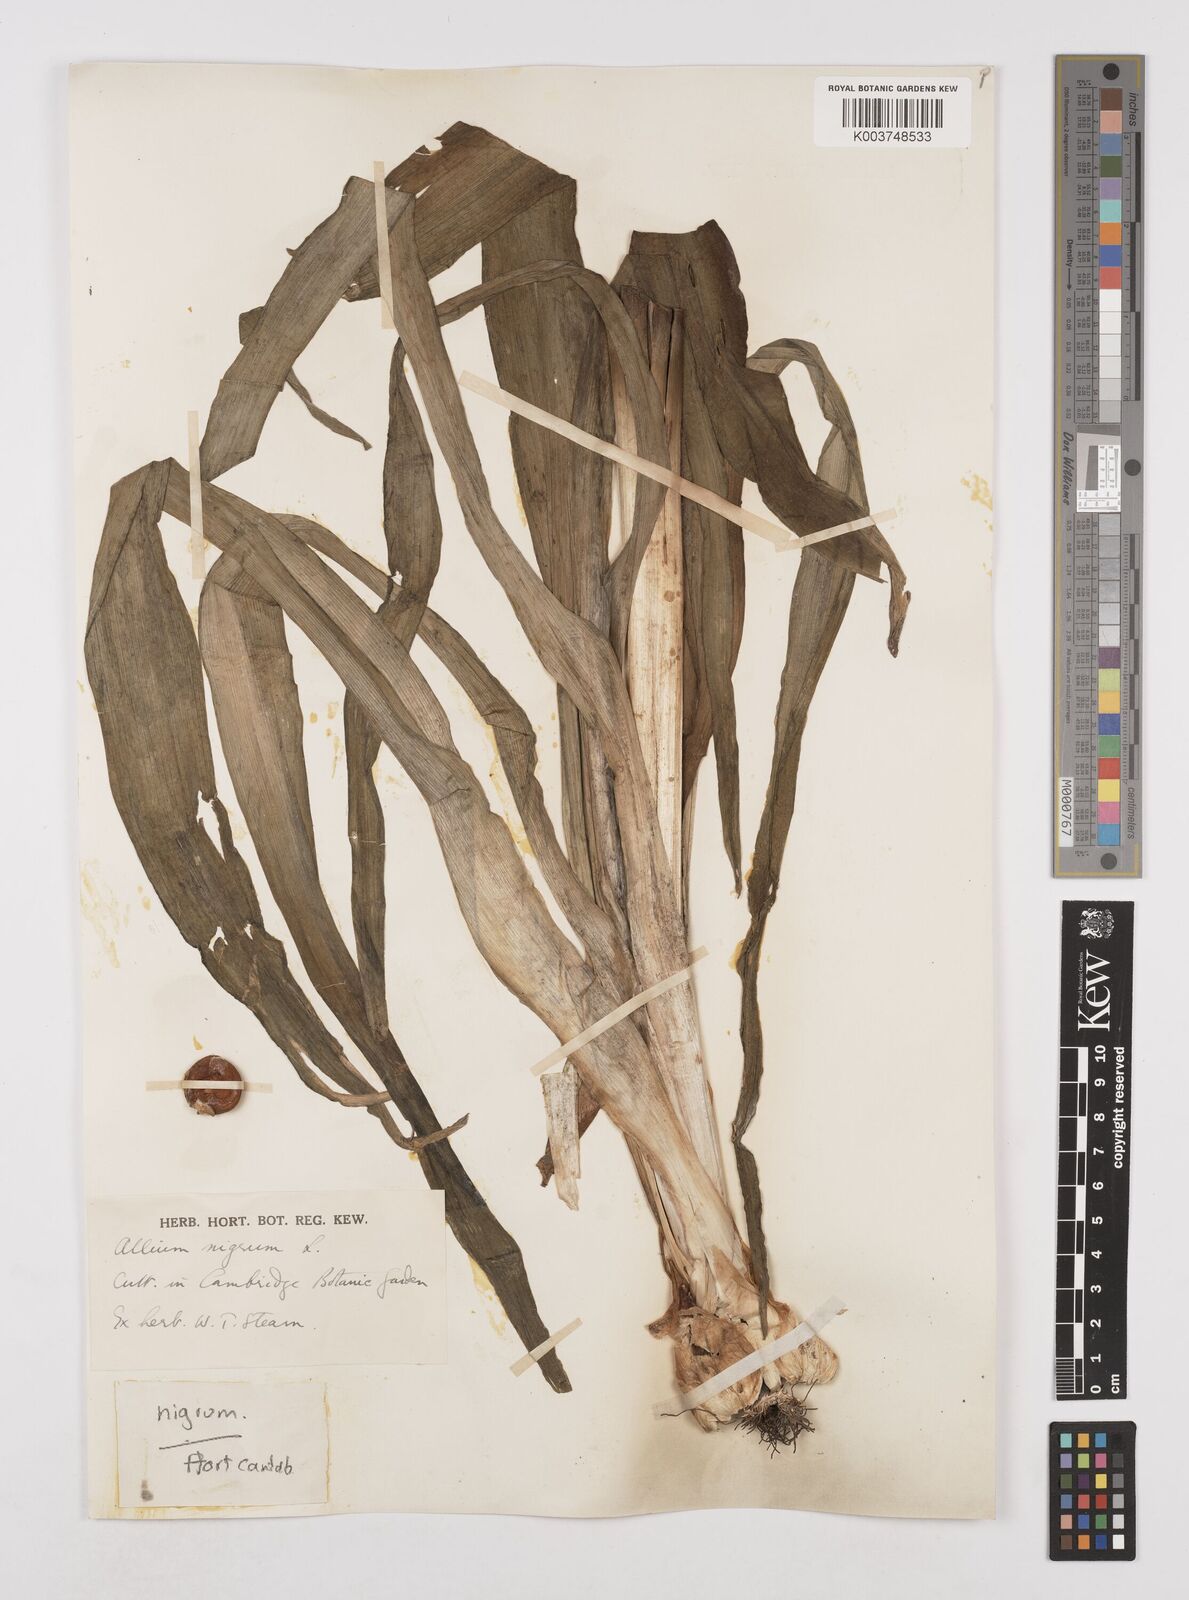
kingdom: Plantae
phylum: Tracheophyta
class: Liliopsida
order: Asparagales
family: Amaryllidaceae
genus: Allium
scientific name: Allium nigrum
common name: Black garlic
